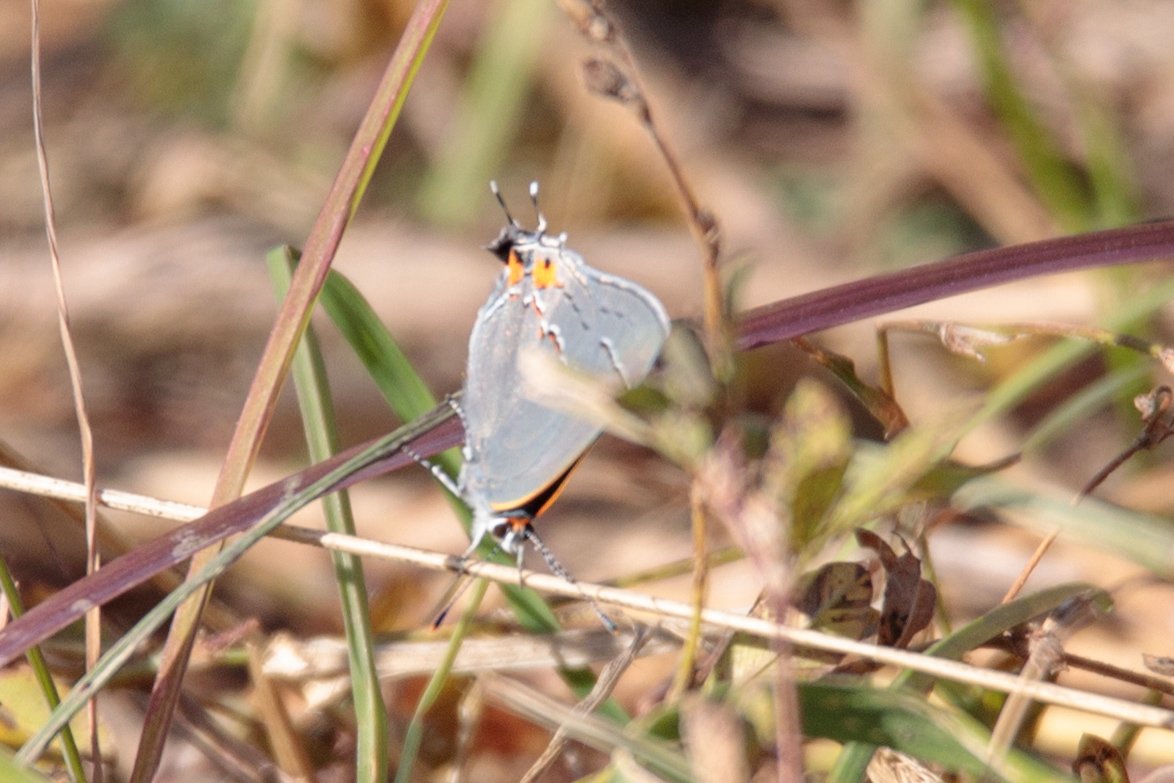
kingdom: Animalia
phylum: Arthropoda
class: Insecta
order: Lepidoptera
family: Lycaenidae
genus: Strymon
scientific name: Strymon melinus
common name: Gray Hairstreak
